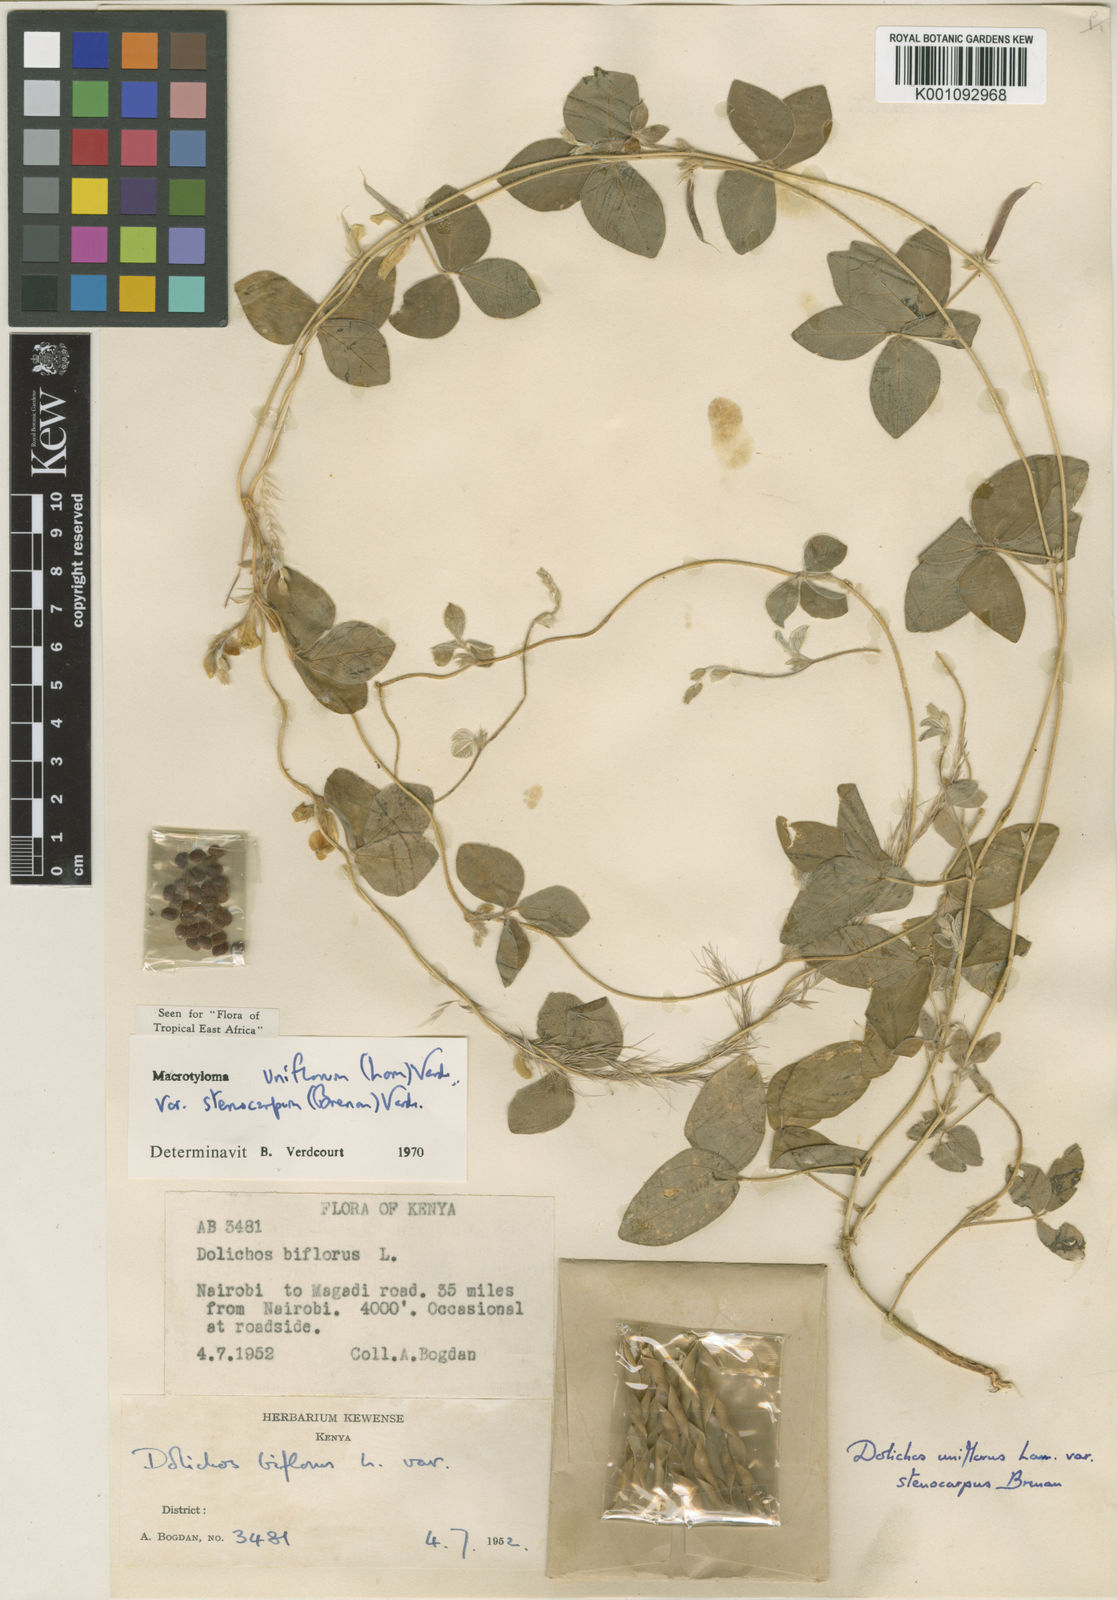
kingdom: Plantae
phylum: Tracheophyta
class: Magnoliopsida
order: Fabales
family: Fabaceae
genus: Macrotyloma
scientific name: Macrotyloma uniflorum
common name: Horse gram
